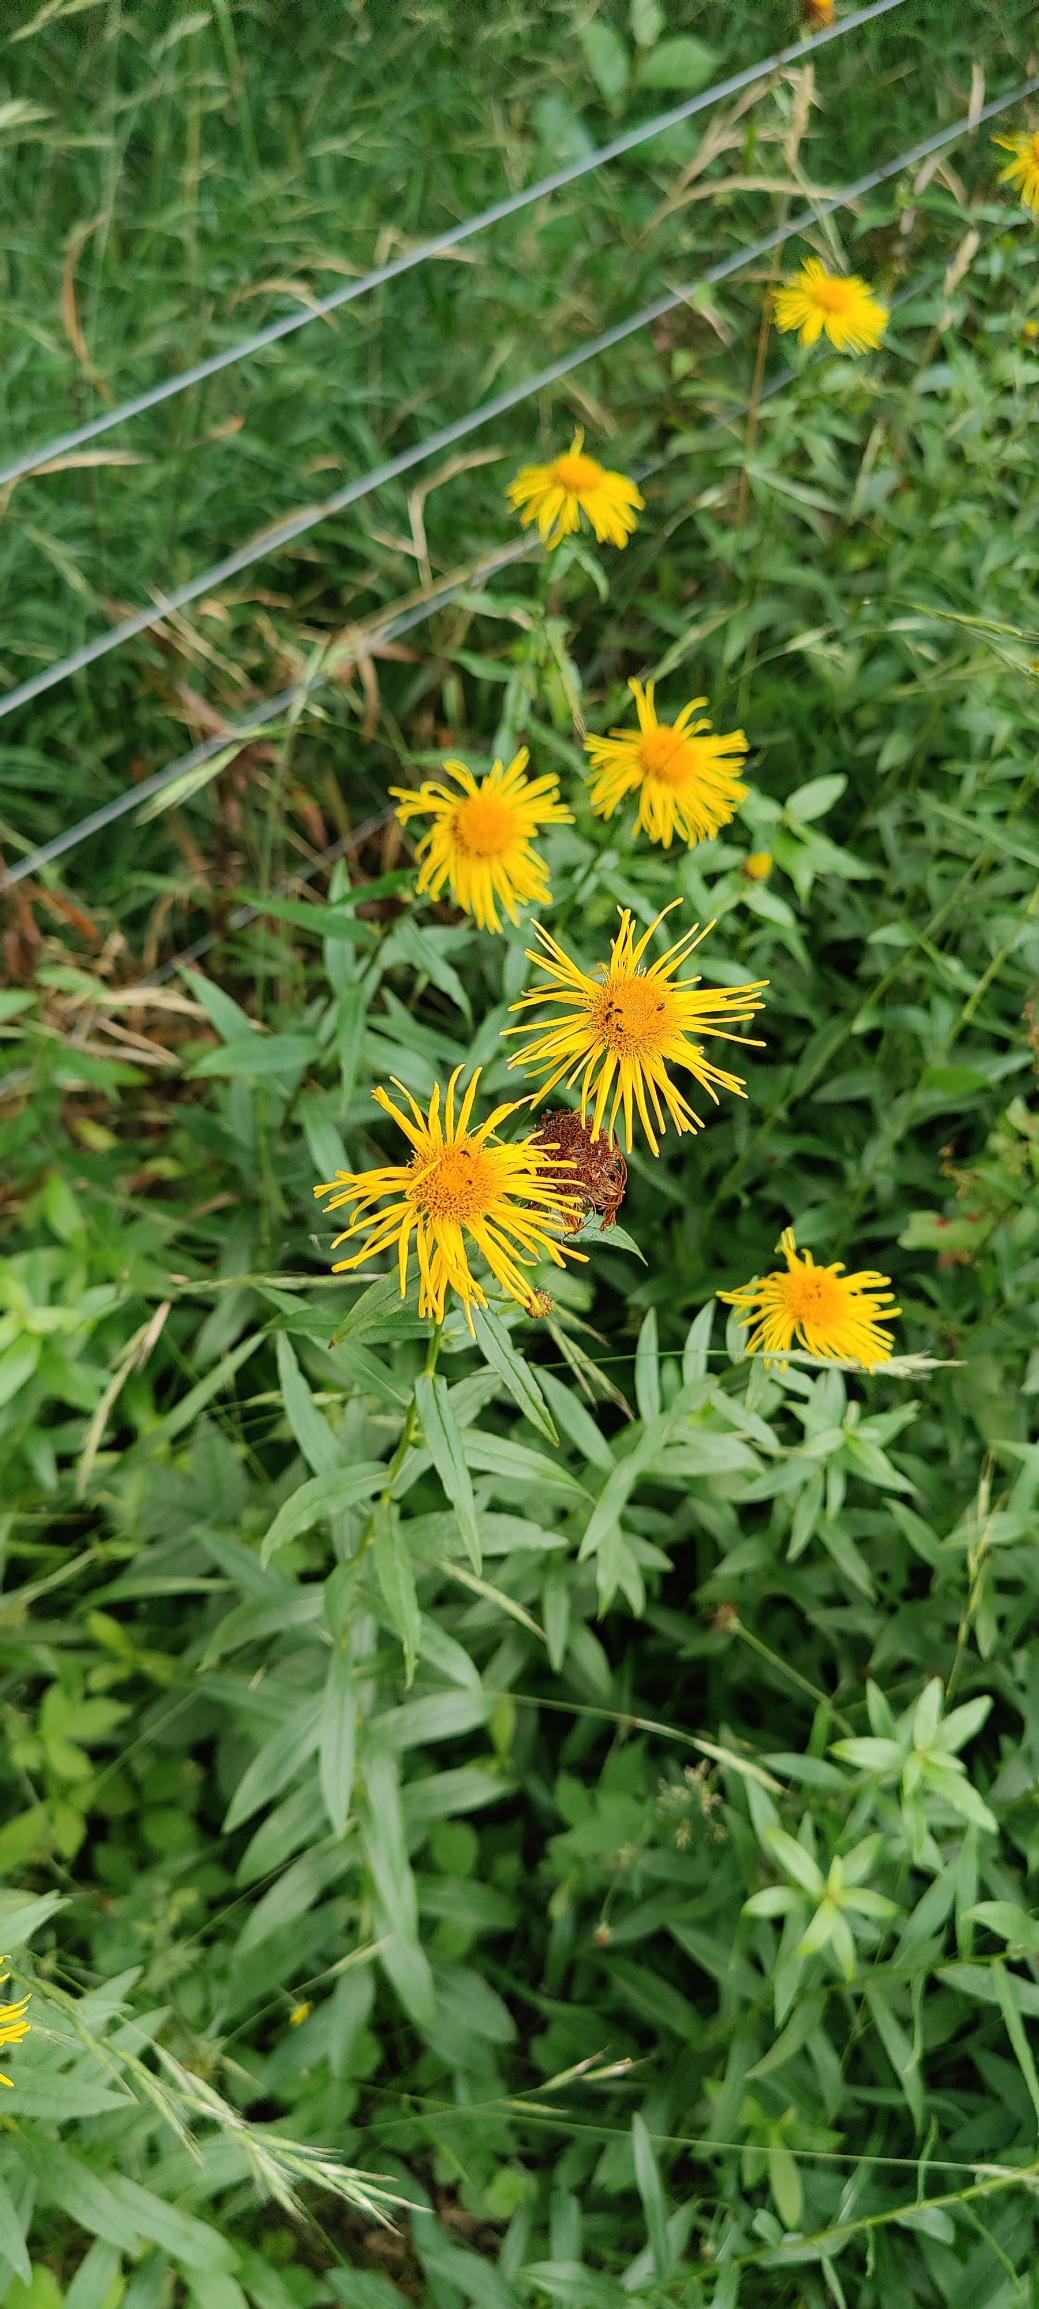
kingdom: Plantae
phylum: Tracheophyta
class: Magnoliopsida
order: Asterales
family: Asteraceae
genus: Pentanema
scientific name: Pentanema salicinum
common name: Pile-alant
